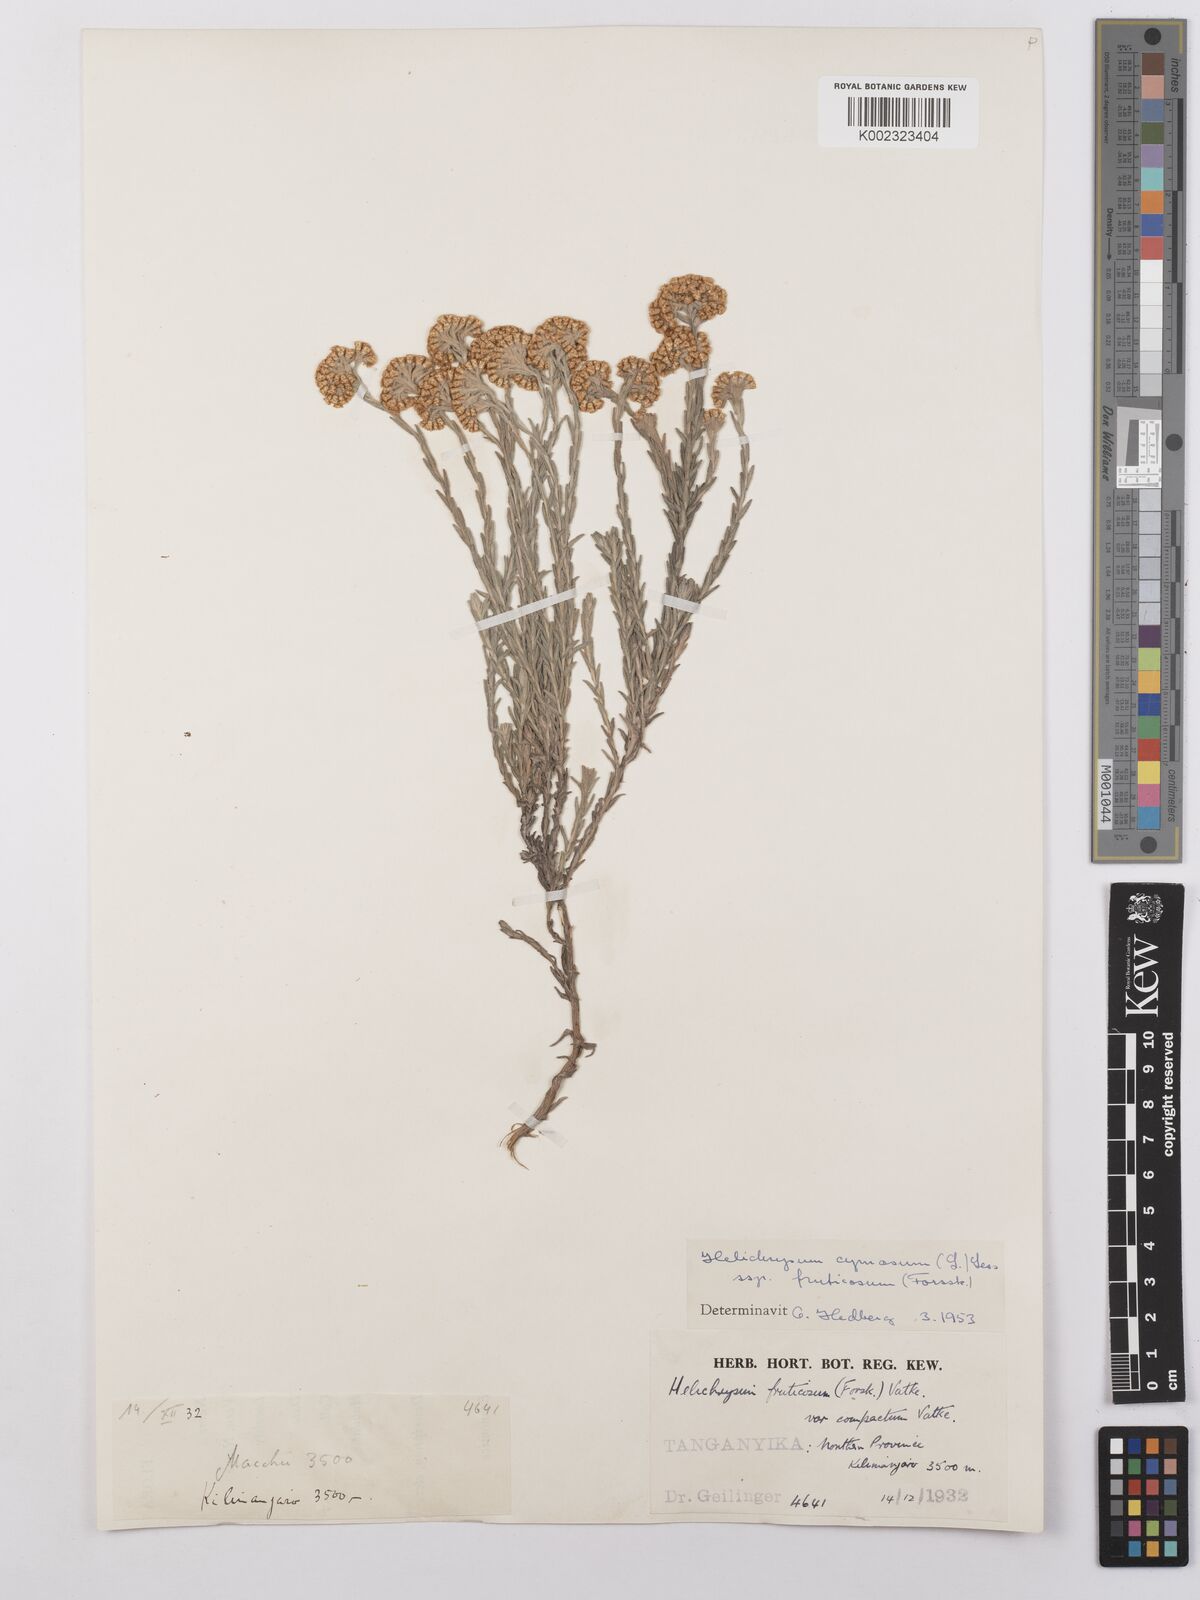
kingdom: Plantae
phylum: Tracheophyta
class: Magnoliopsida
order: Asterales
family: Asteraceae
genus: Helichrysum
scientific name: Helichrysum forskahlii
